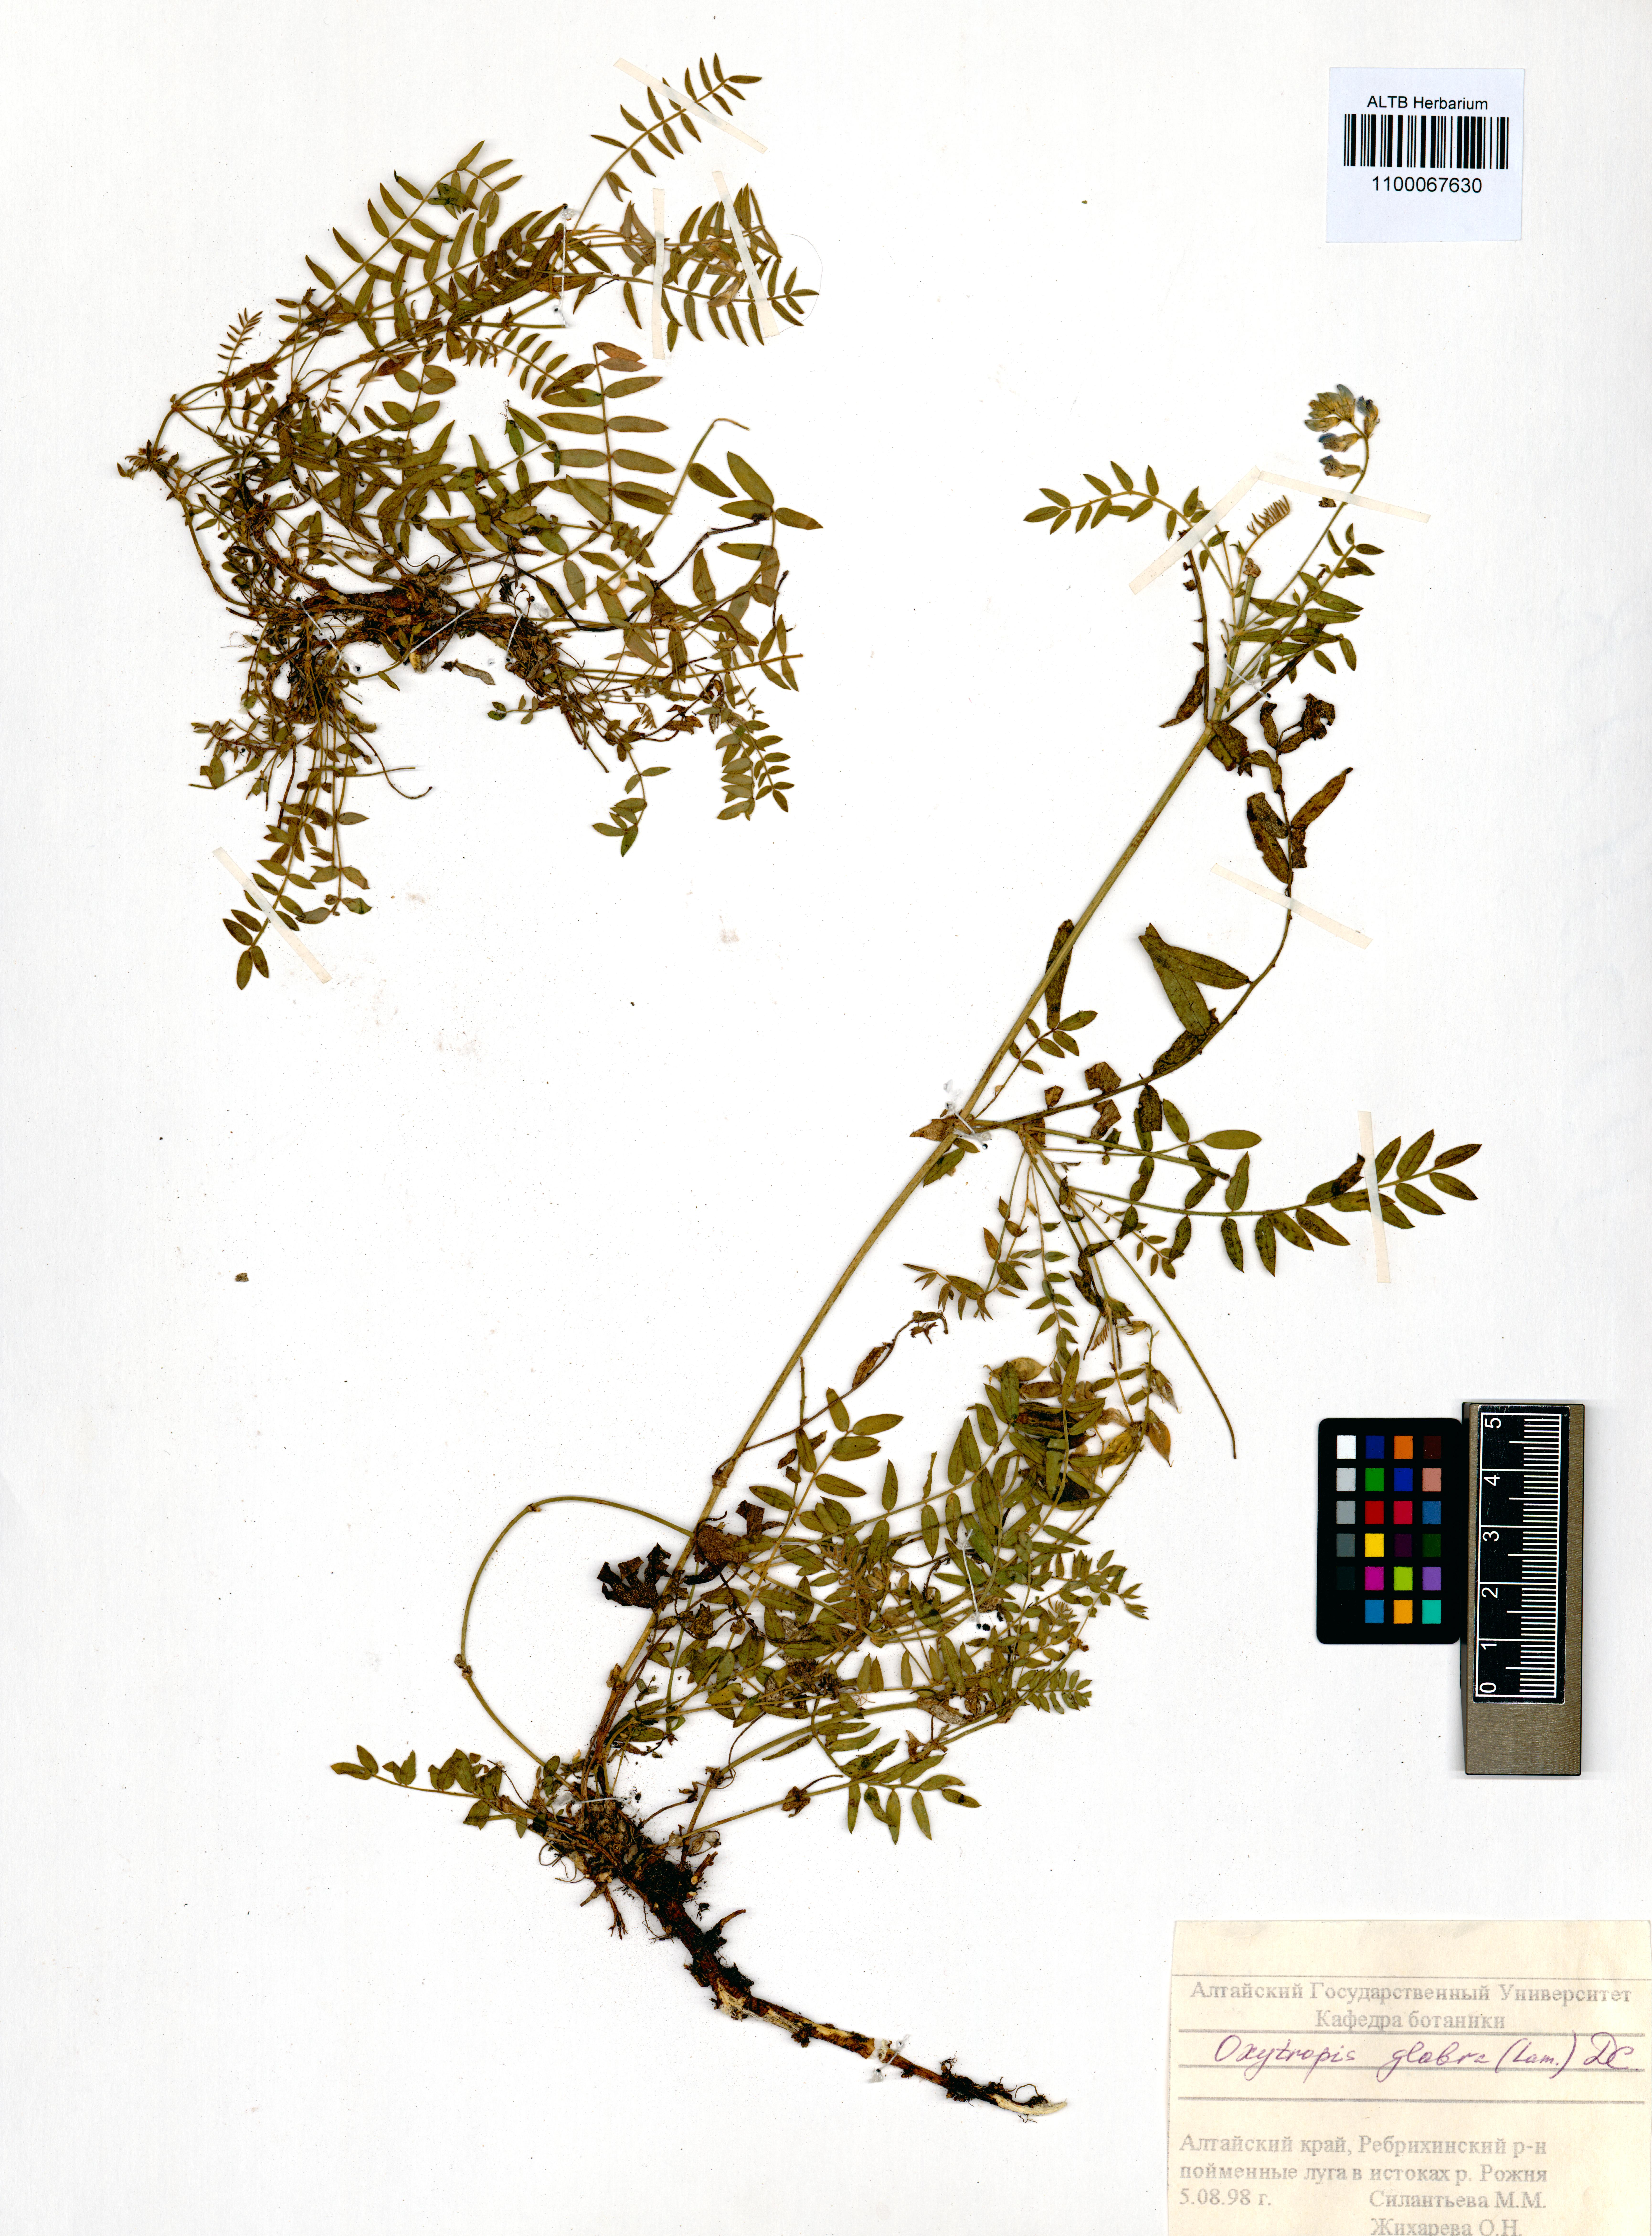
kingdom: Plantae
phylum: Tracheophyta
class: Magnoliopsida
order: Fabales
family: Fabaceae
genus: Oxytropis
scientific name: Oxytropis glabra
